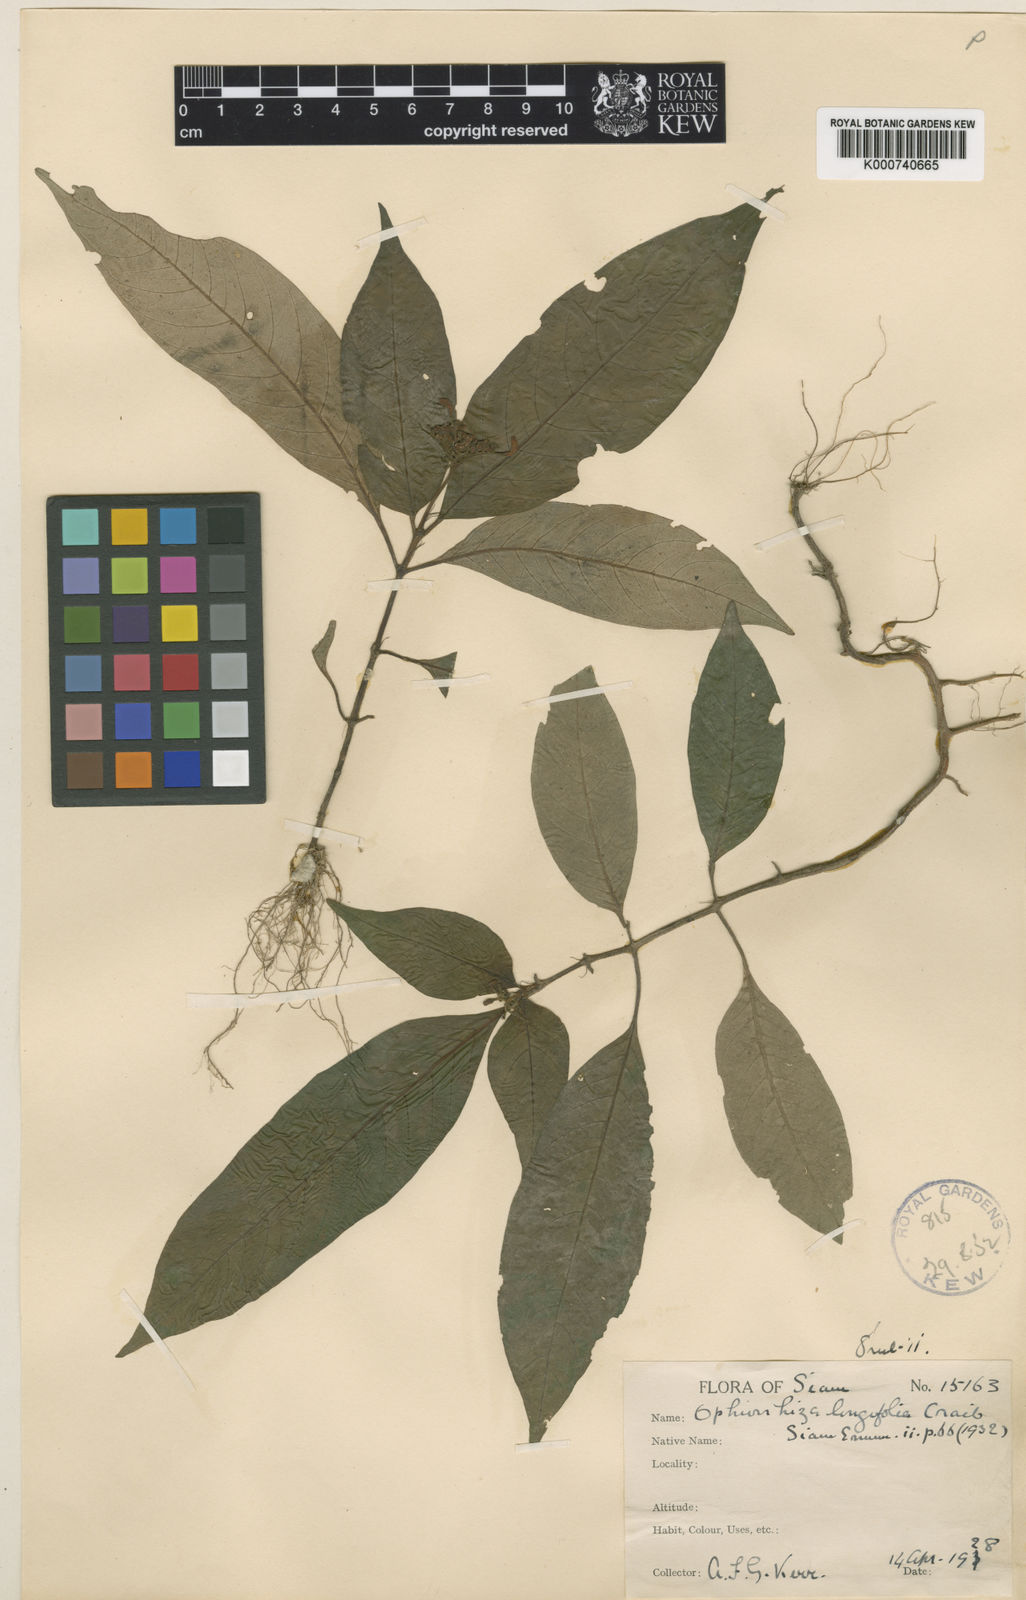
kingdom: Plantae
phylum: Tracheophyta
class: Magnoliopsida
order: Gentianales
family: Rubiaceae
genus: Ophiorrhiza
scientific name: Ophiorrhiza erubescens
